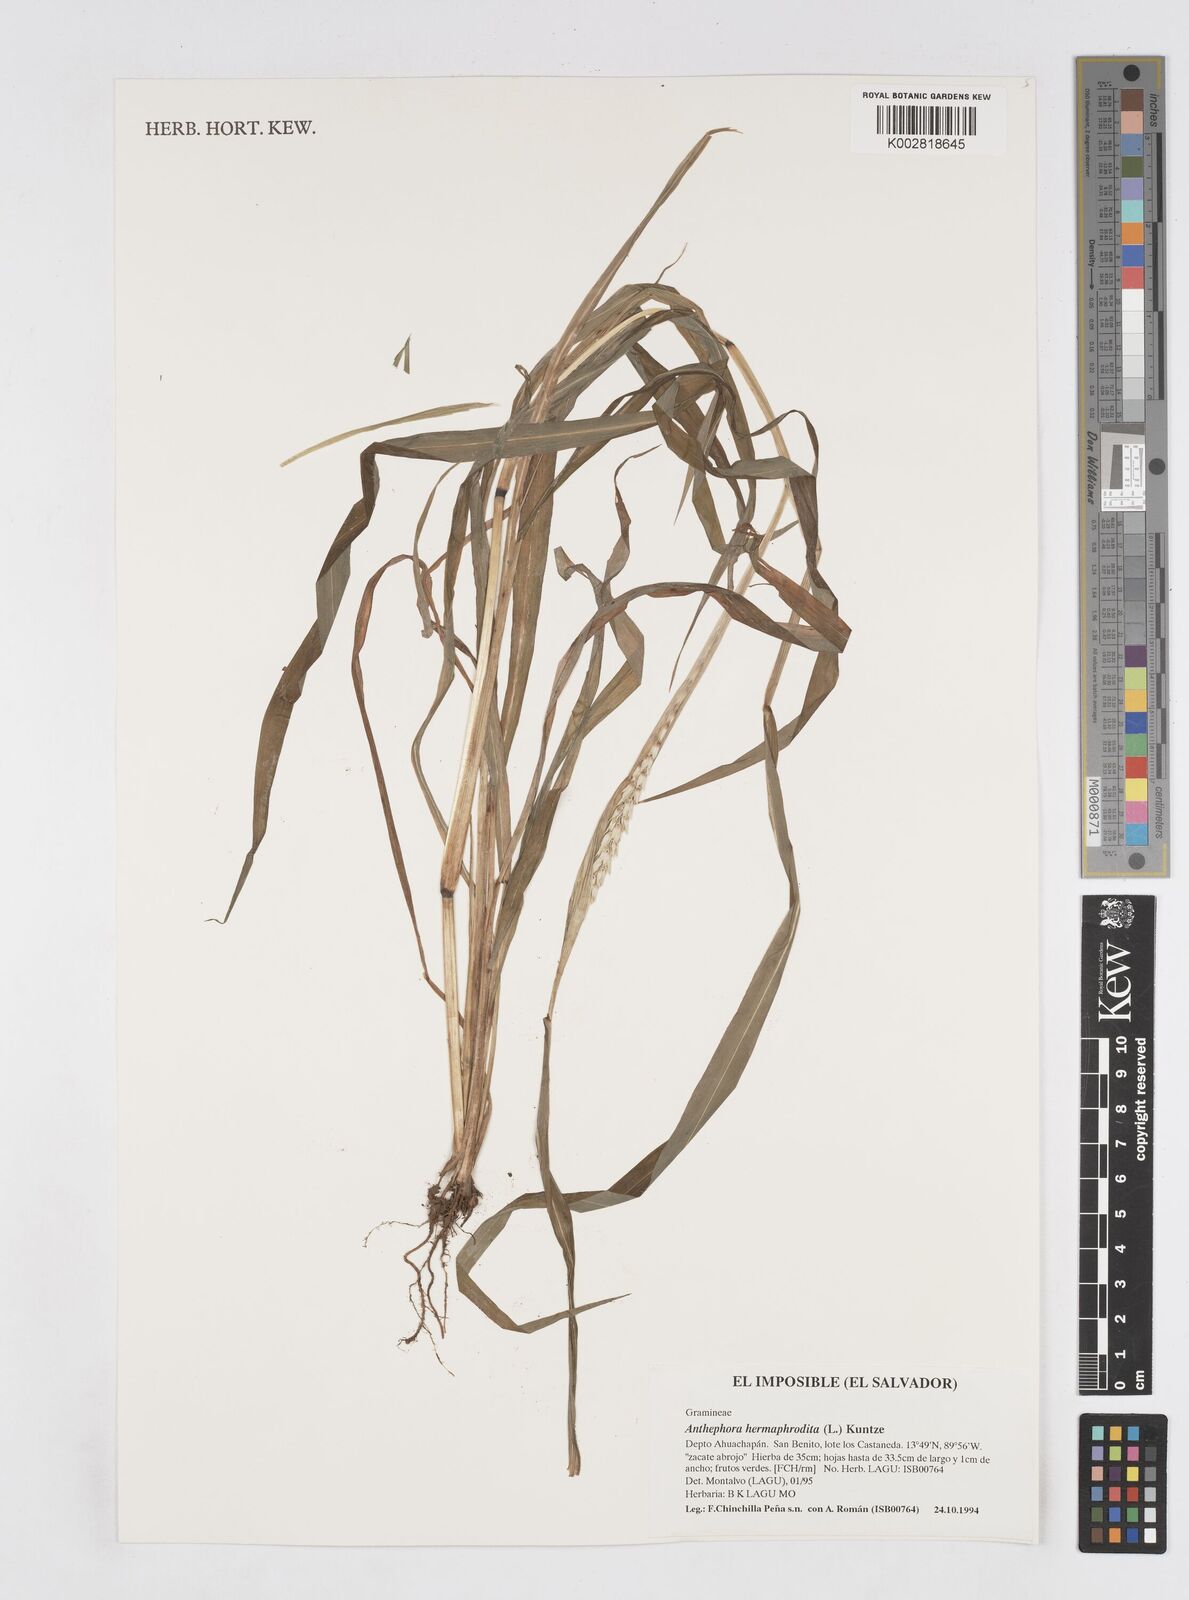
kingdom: Plantae
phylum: Tracheophyta
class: Liliopsida
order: Poales
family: Poaceae
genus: Anthephora
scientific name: Anthephora hermaphrodita
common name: Oldfield grass
